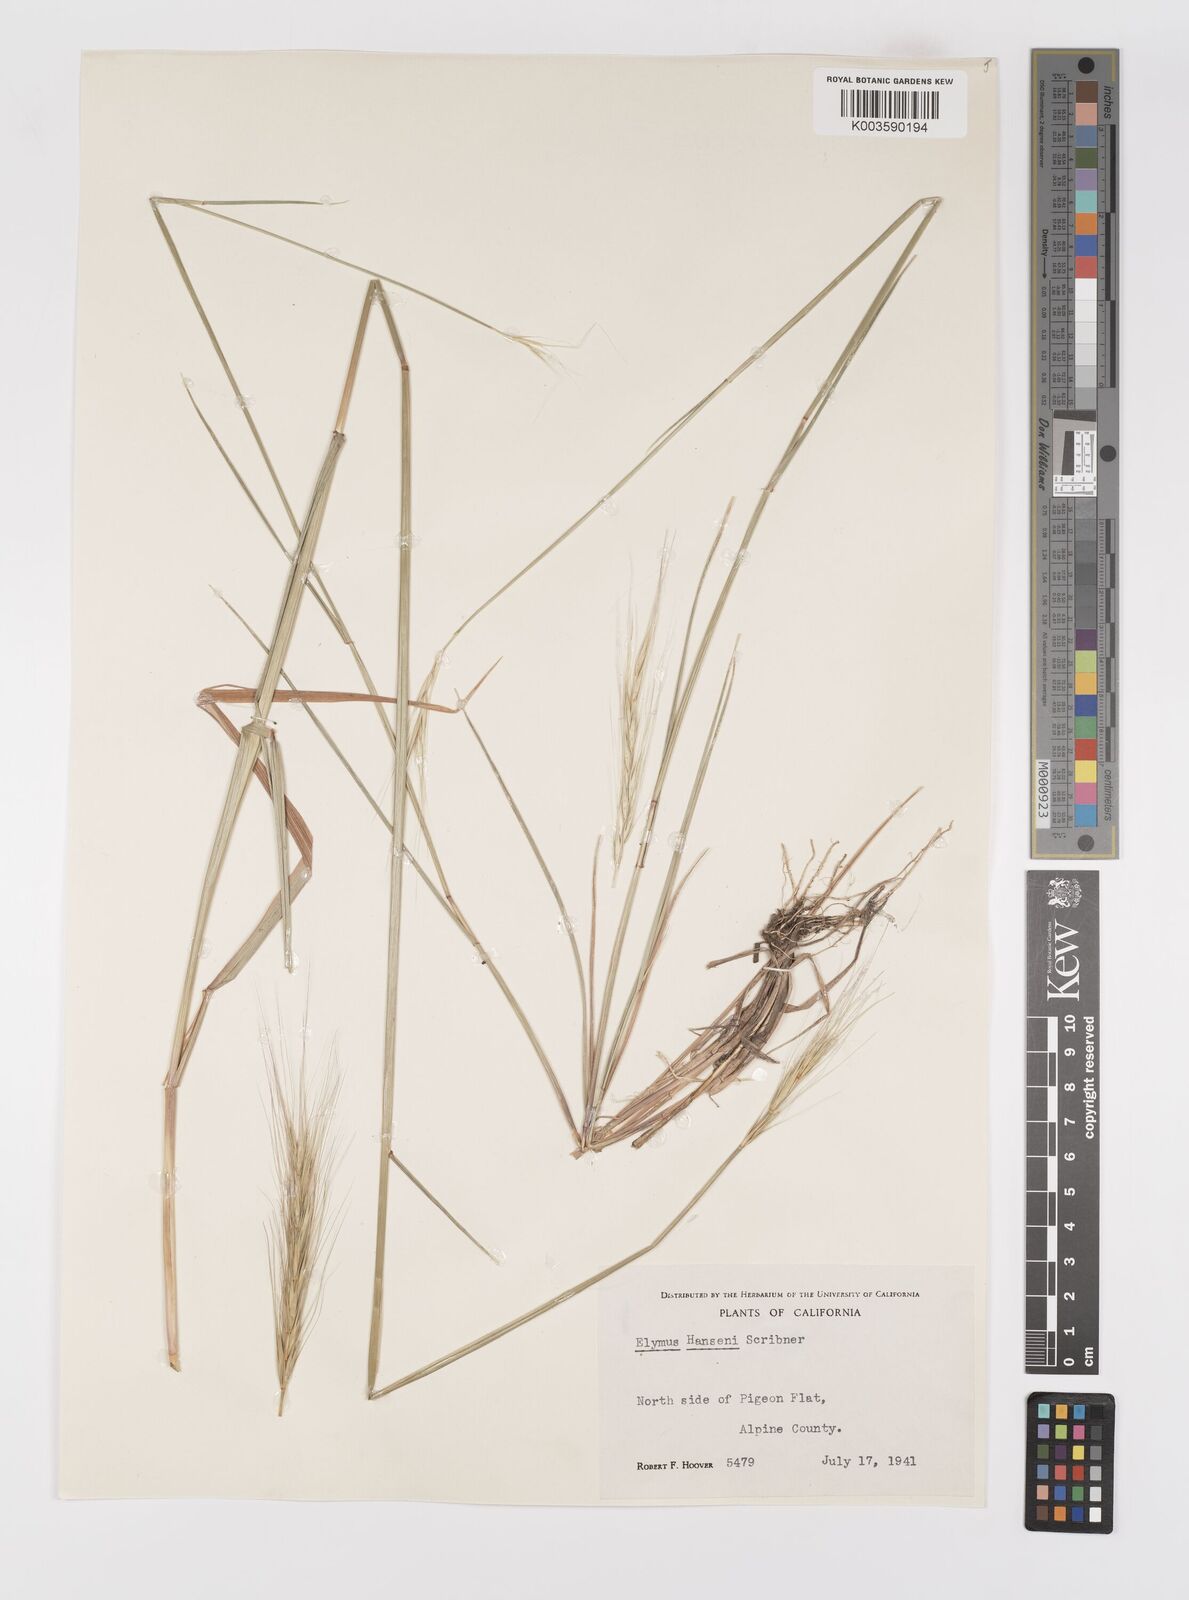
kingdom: Plantae
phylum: Tracheophyta
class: Liliopsida
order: Poales
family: Poaceae
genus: Elymus
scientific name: Elymus hansenii
